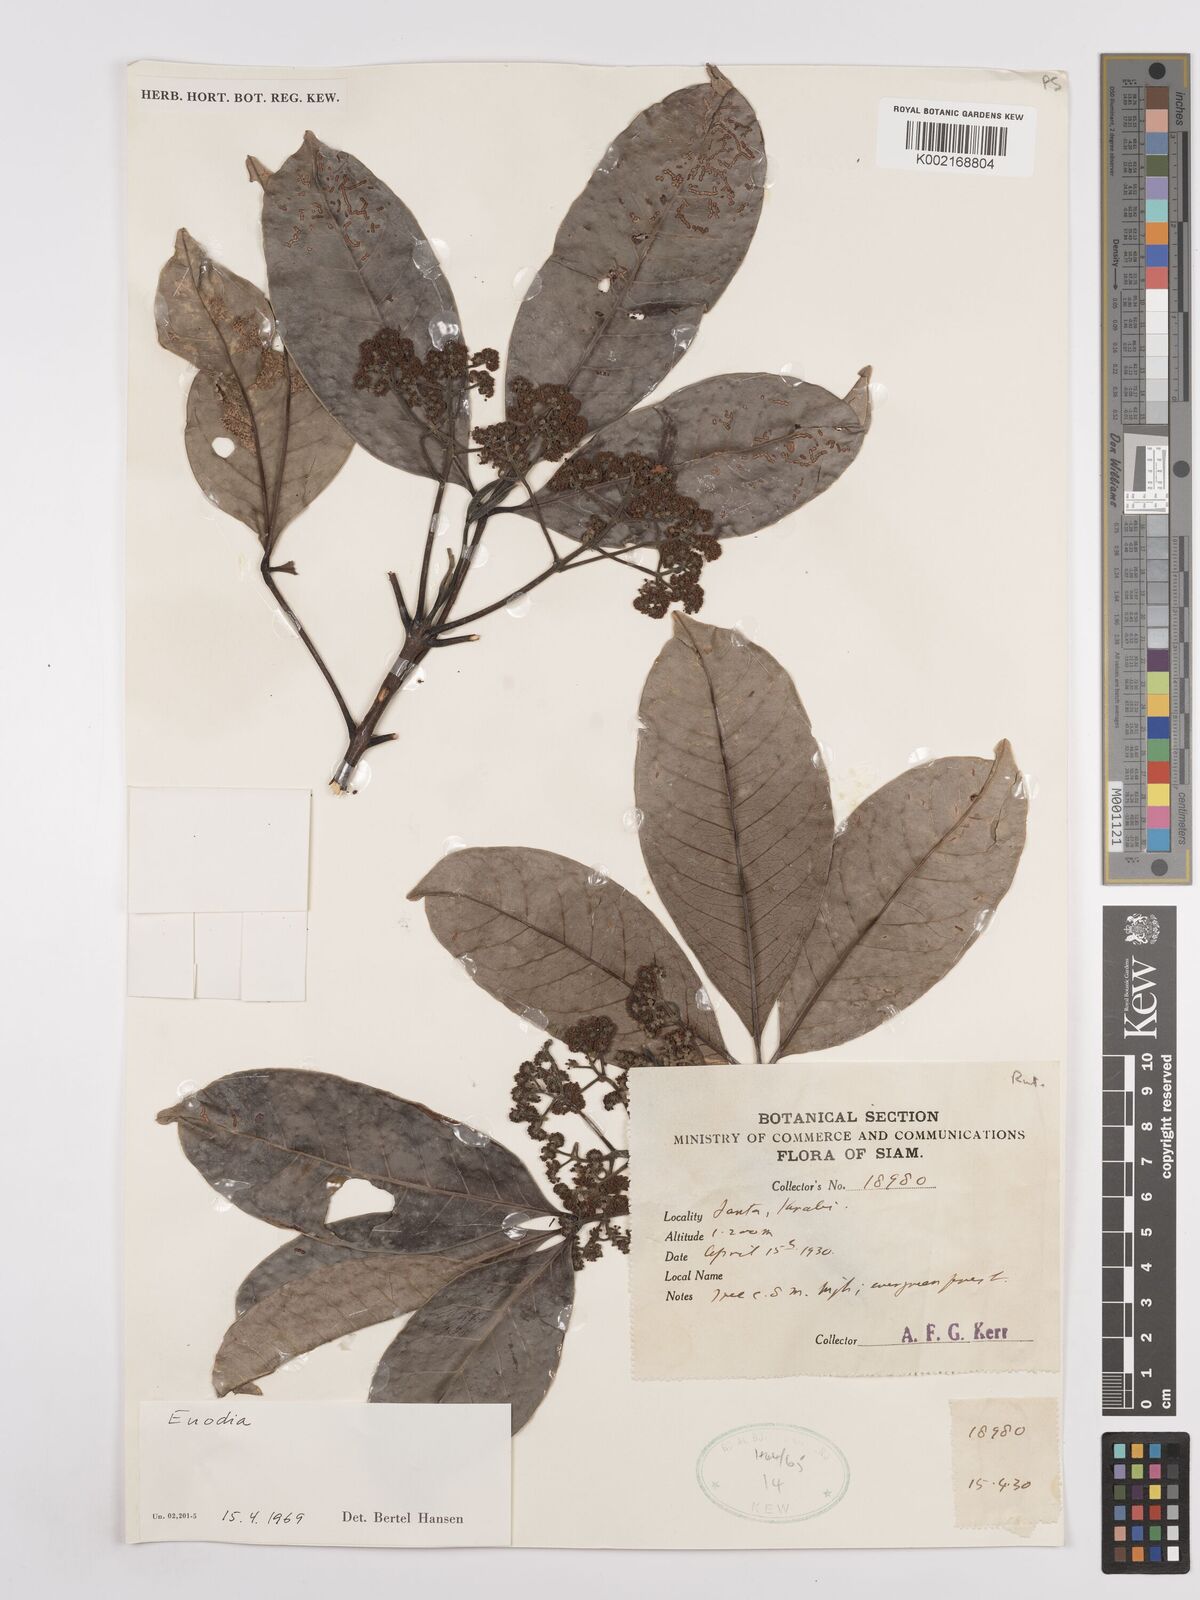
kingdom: Plantae
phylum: Tracheophyta
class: Magnoliopsida
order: Sapindales
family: Rutaceae
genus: Euodia
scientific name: Euodia
